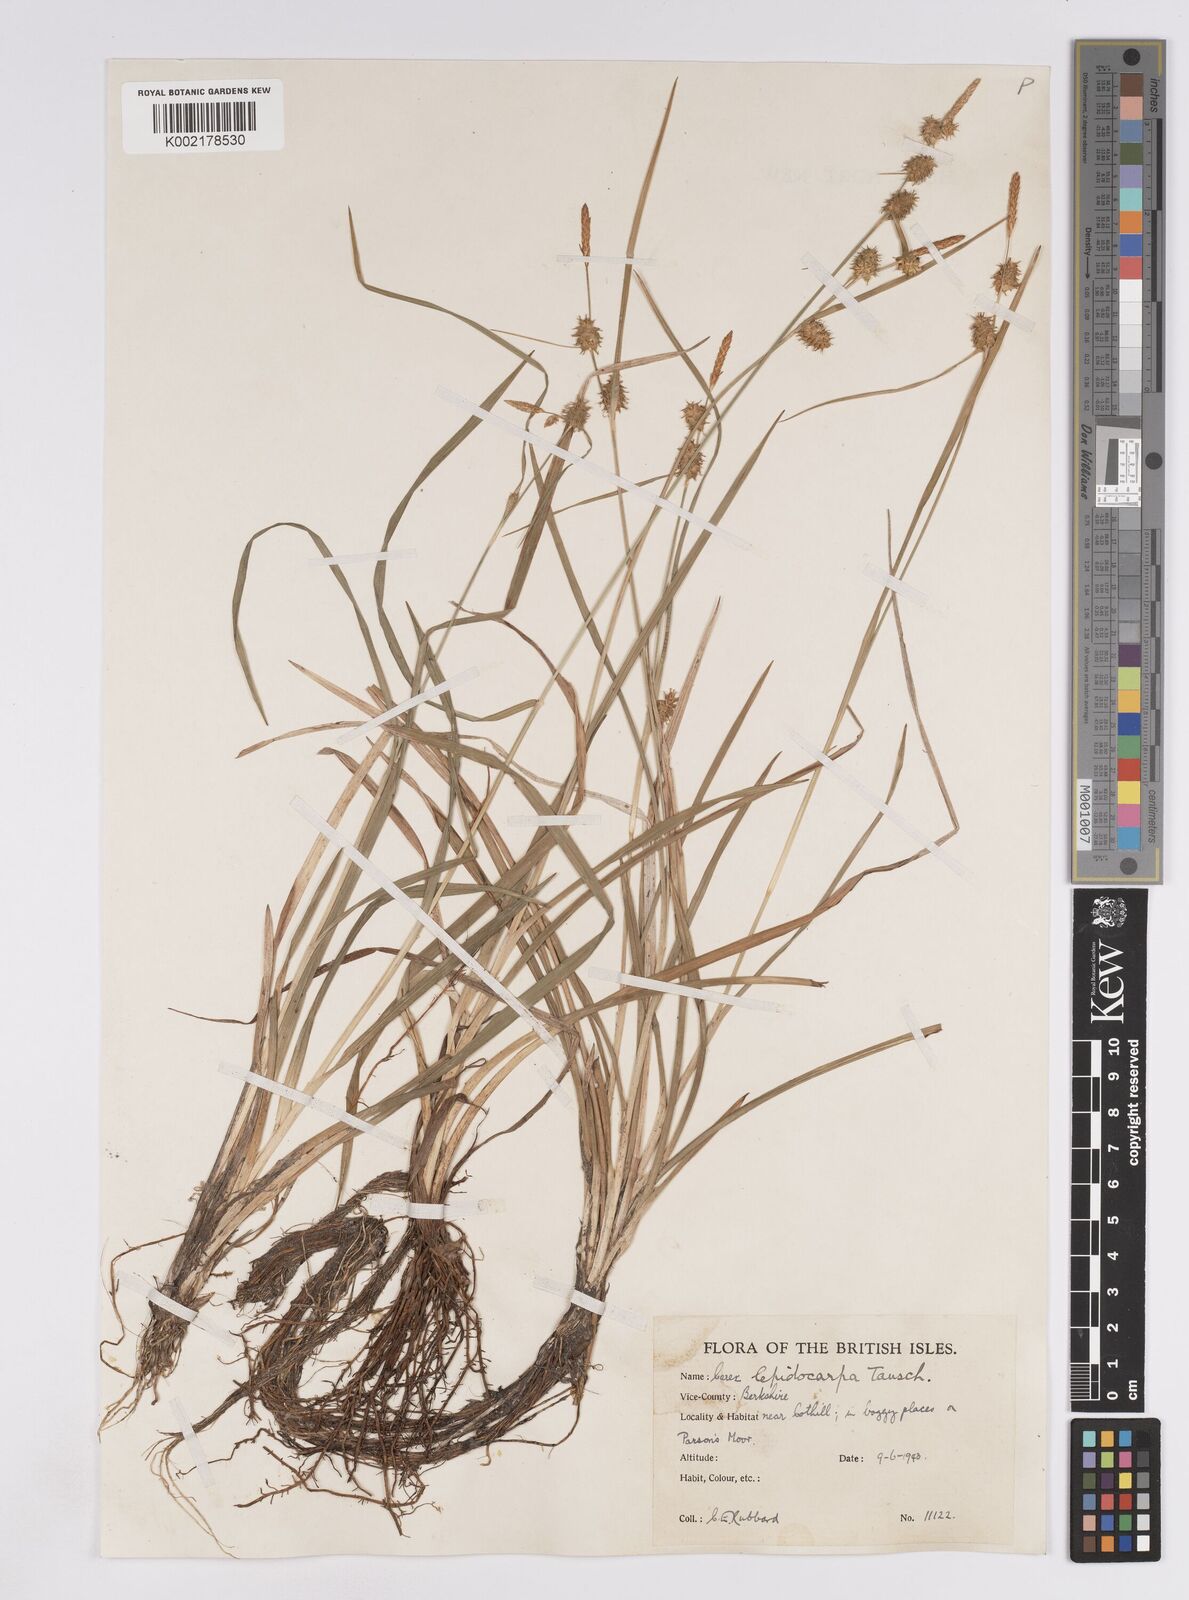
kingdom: Plantae
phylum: Tracheophyta
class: Liliopsida
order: Poales
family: Cyperaceae
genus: Carex
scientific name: Carex lepidocarpa
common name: Long-stalked yellow-sedge
